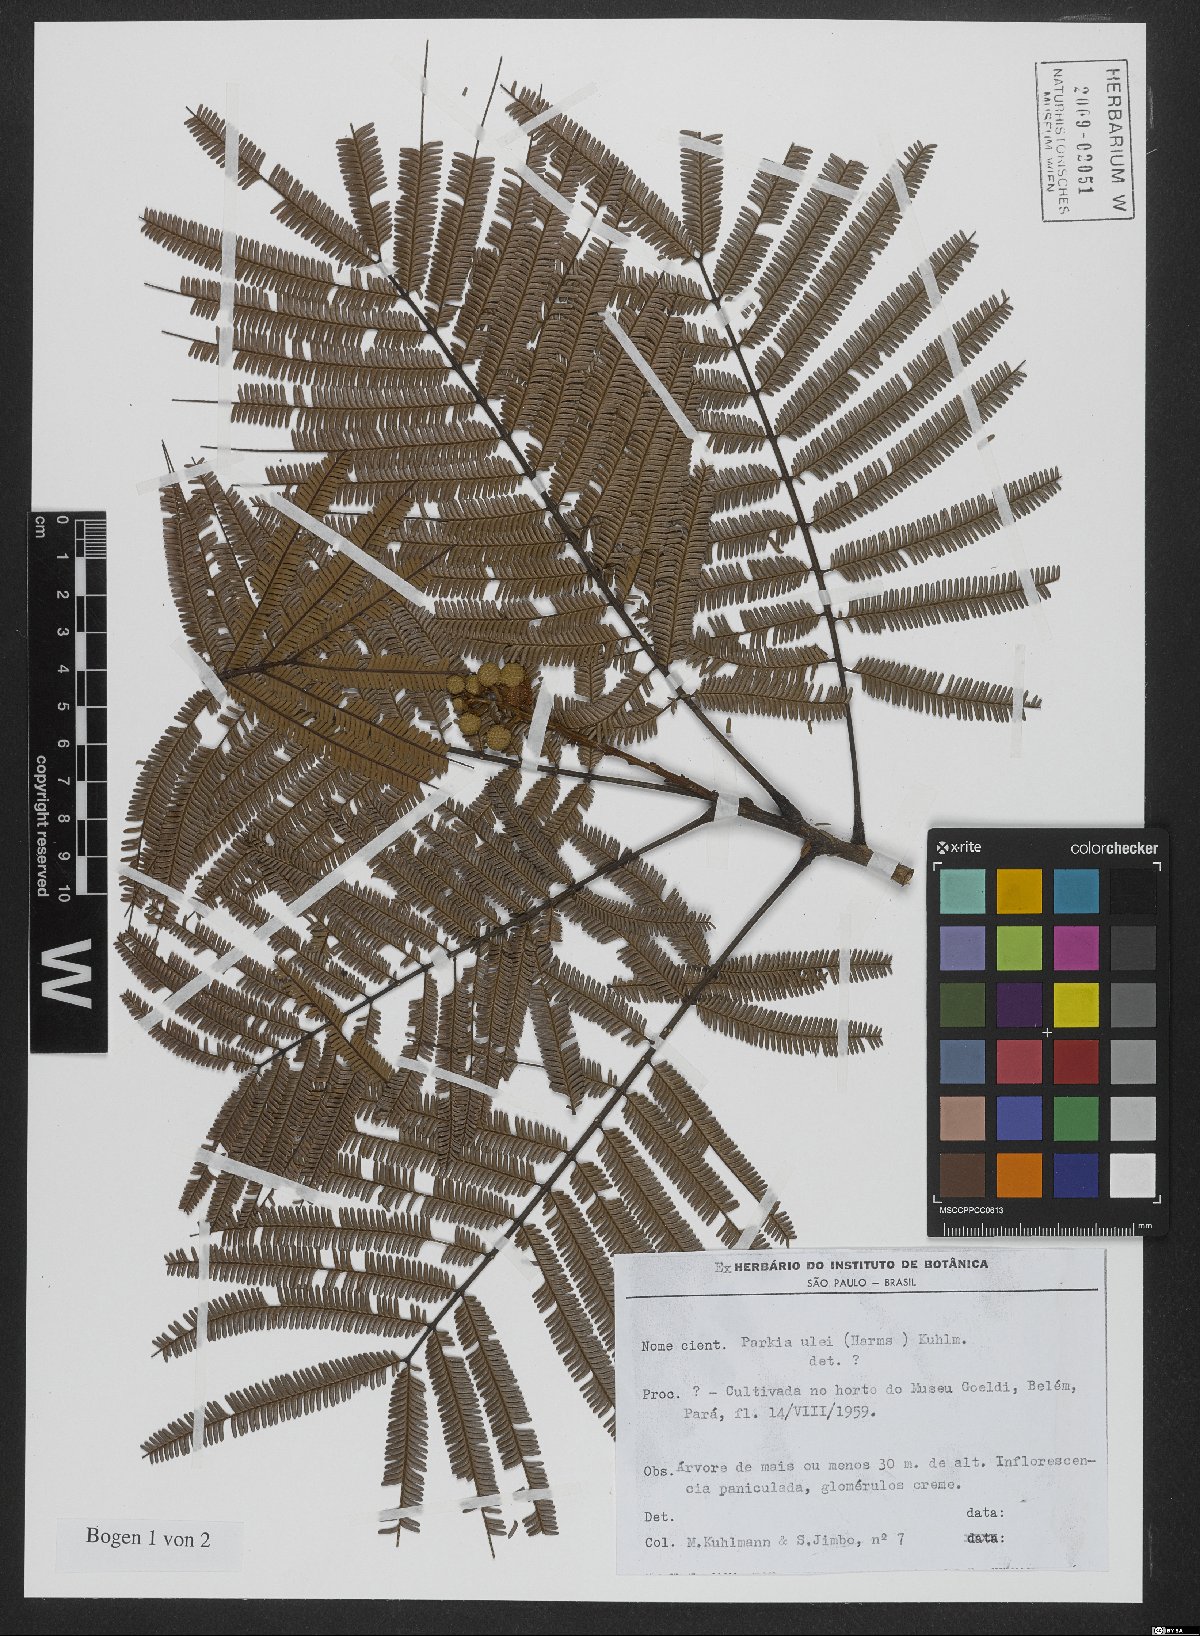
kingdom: Plantae
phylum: Tracheophyta
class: Magnoliopsida
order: Fabales
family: Fabaceae
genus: Parkia
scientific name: Parkia ulei
